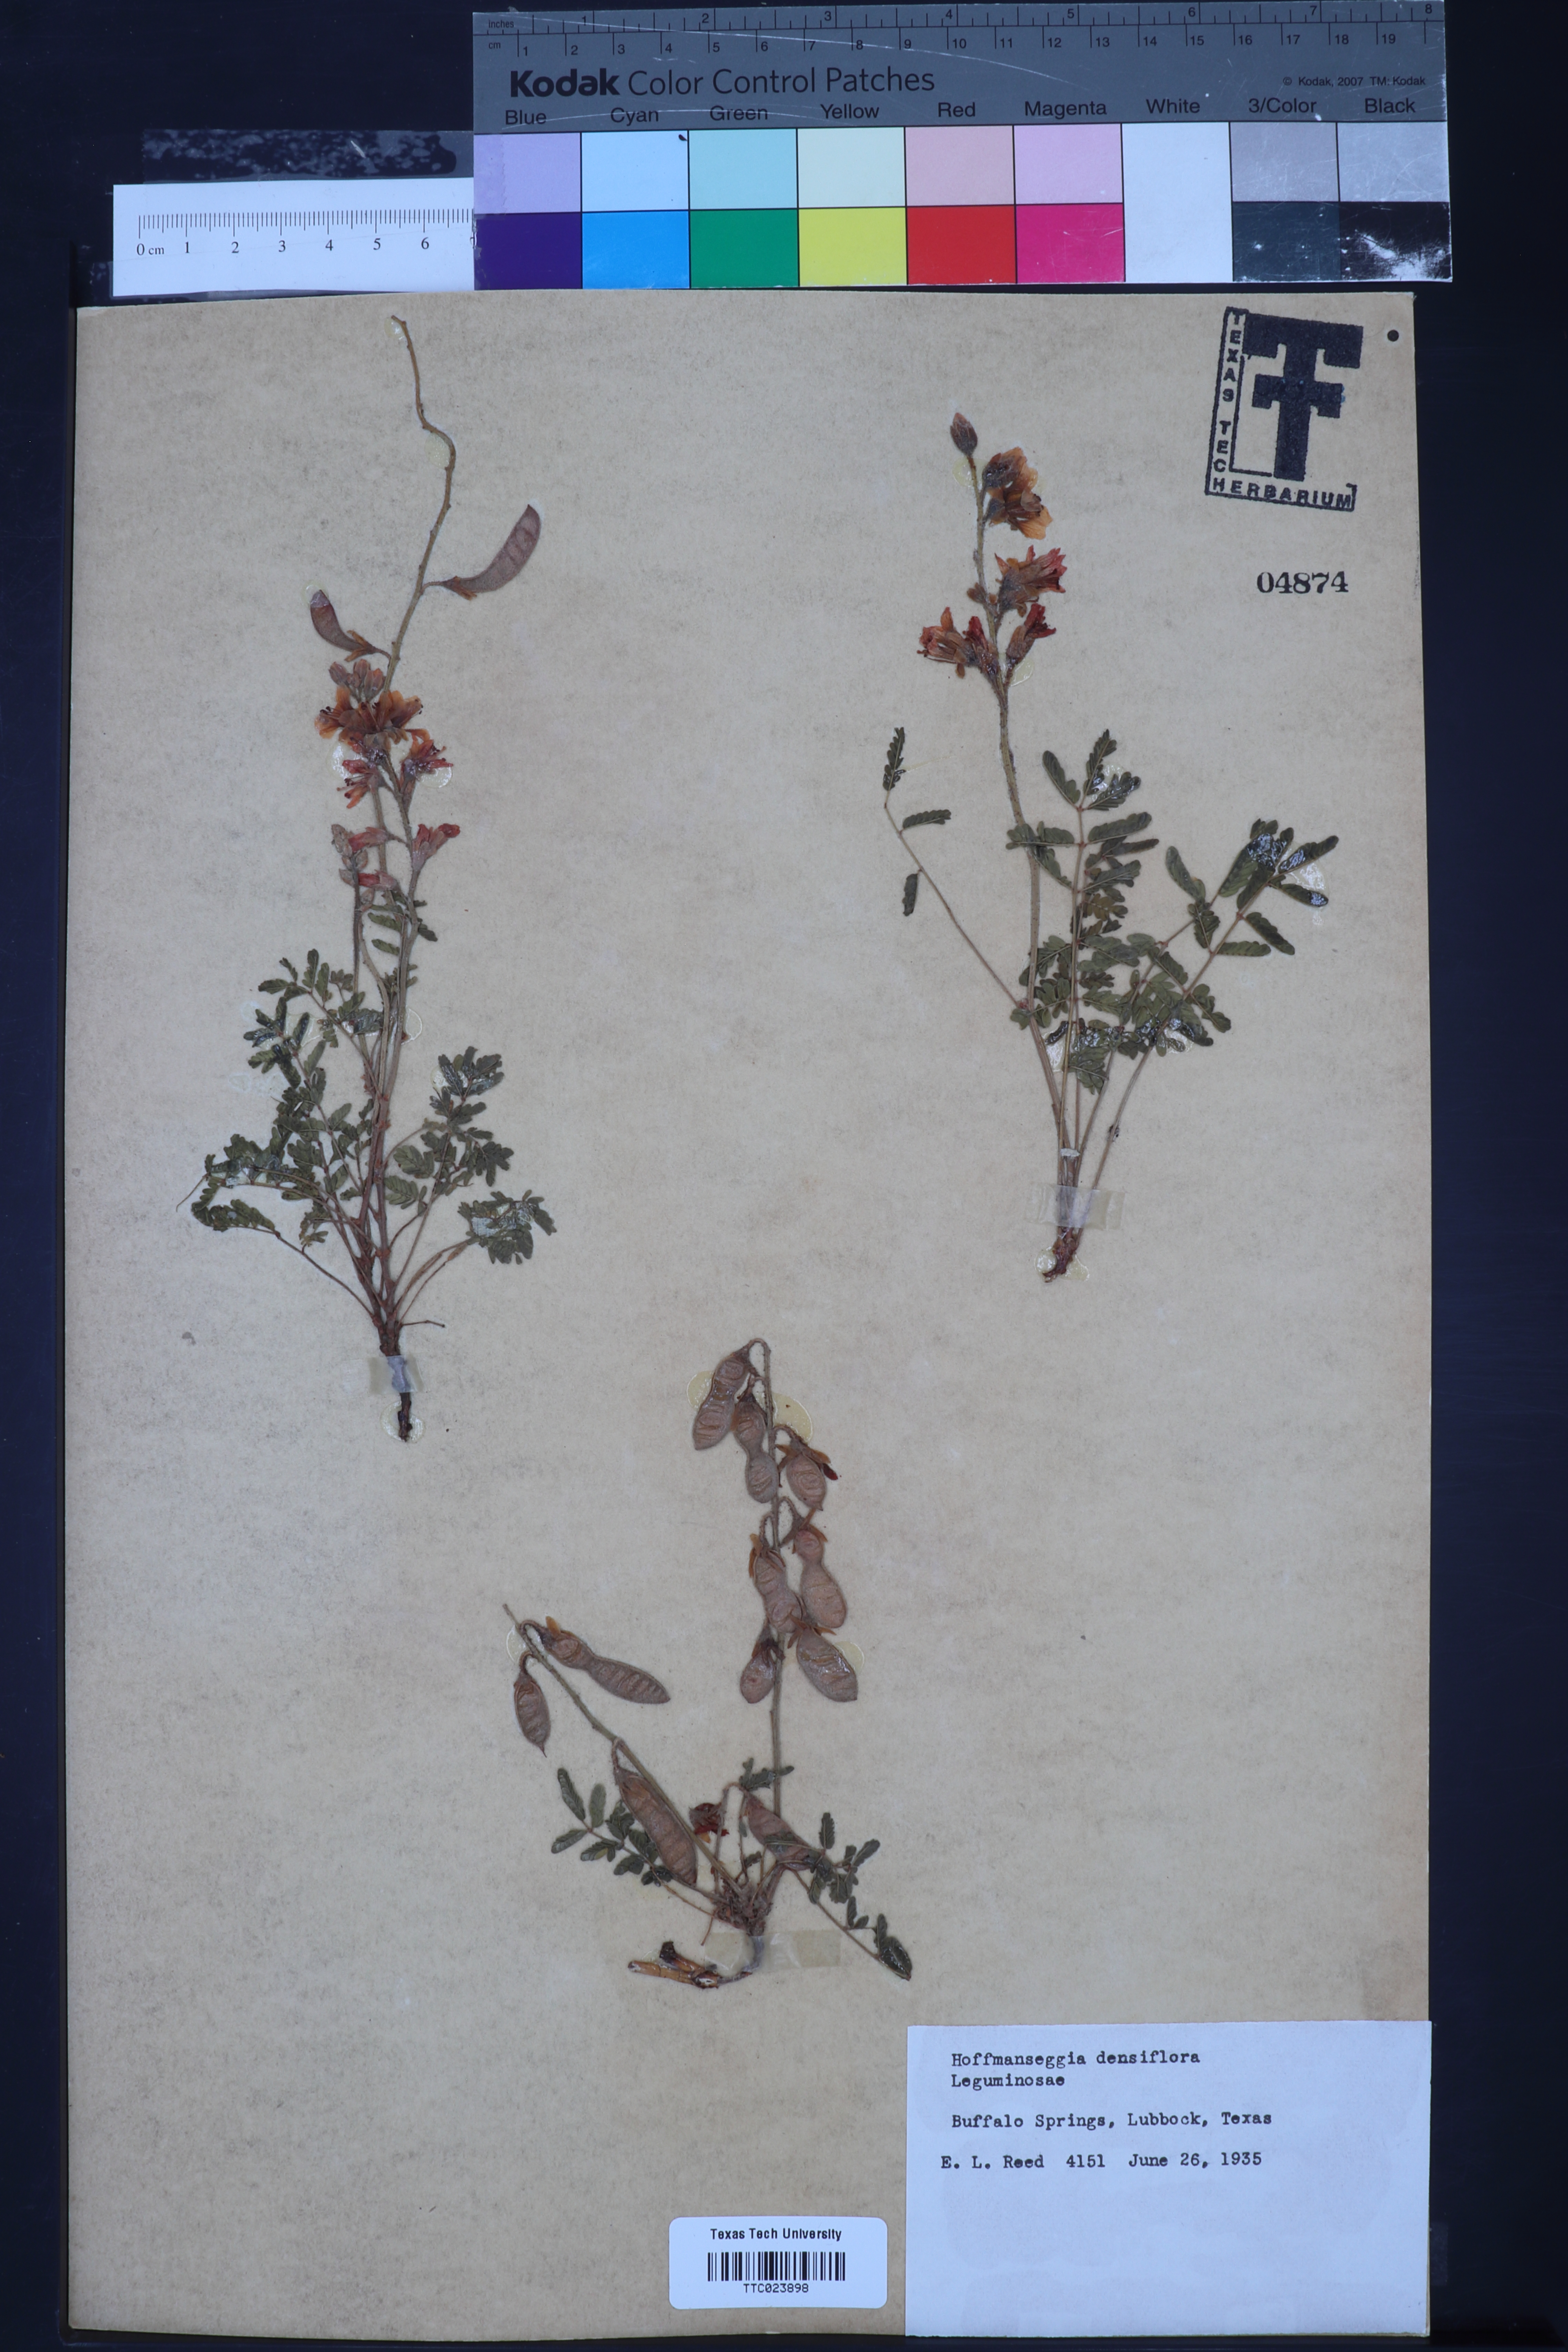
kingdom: Plantae
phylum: Tracheophyta
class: Magnoliopsida
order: Fabales
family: Fabaceae
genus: Hoffmannseggia
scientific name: Hoffmannseggia glauca
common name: Pignut
